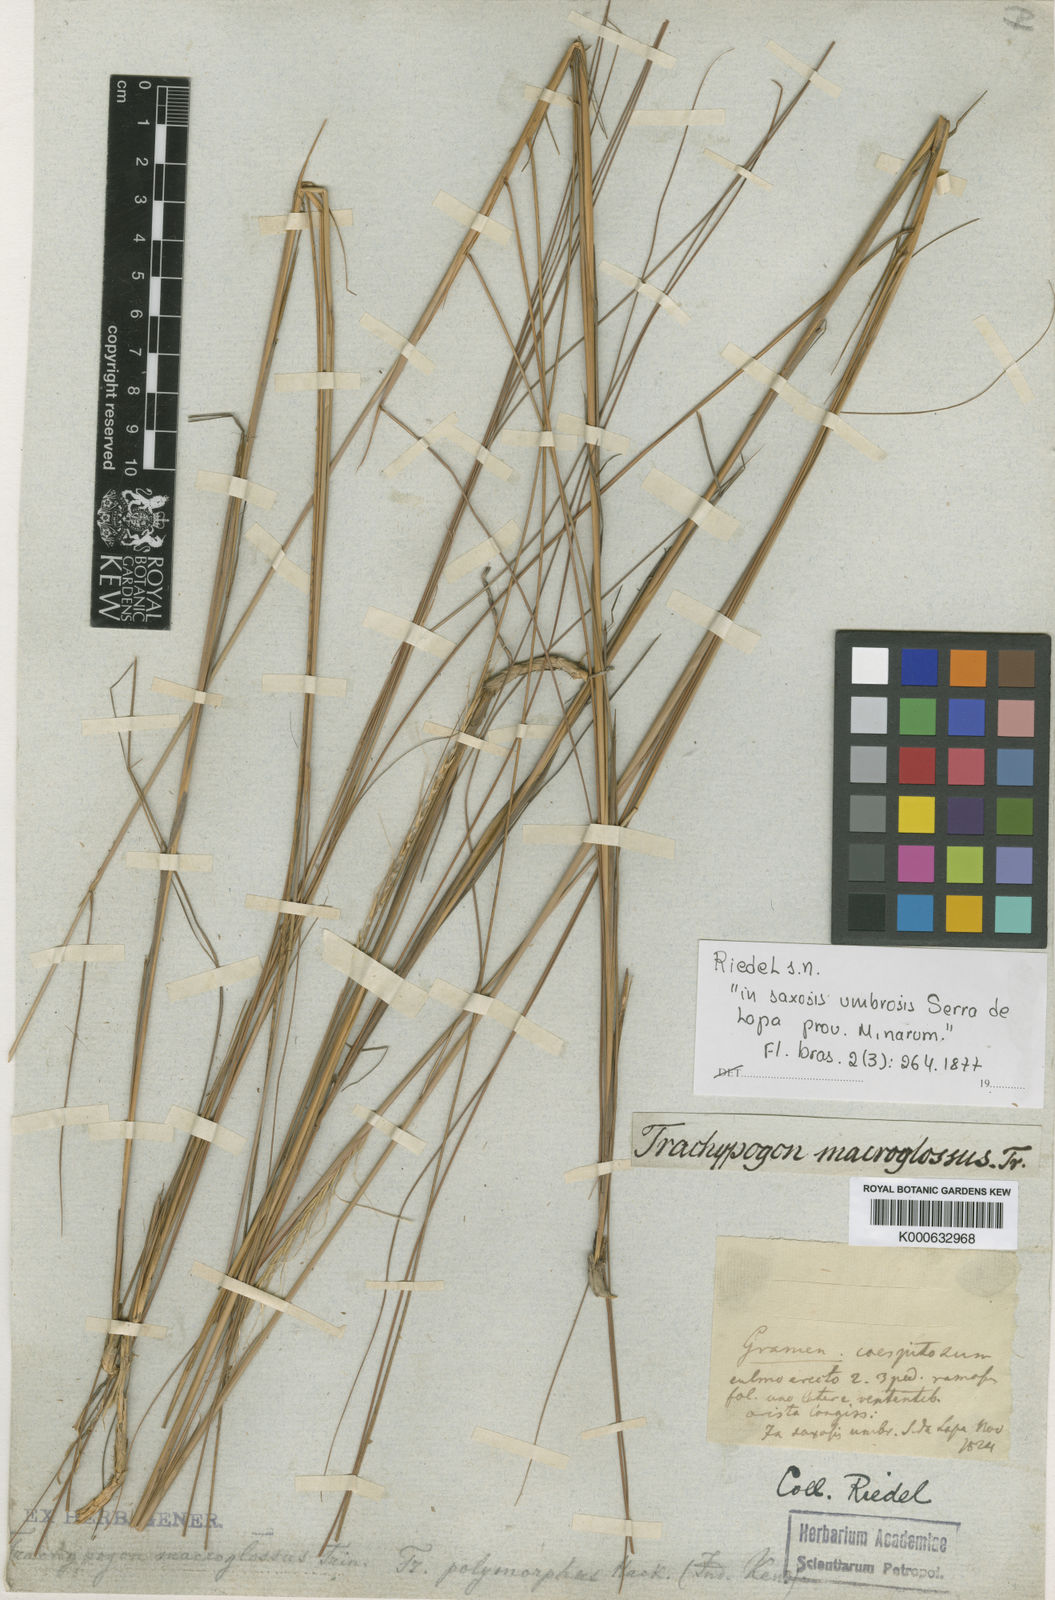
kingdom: Plantae
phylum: Tracheophyta
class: Liliopsida
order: Poales
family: Poaceae
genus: Trachypogon
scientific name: Trachypogon macroglossus
